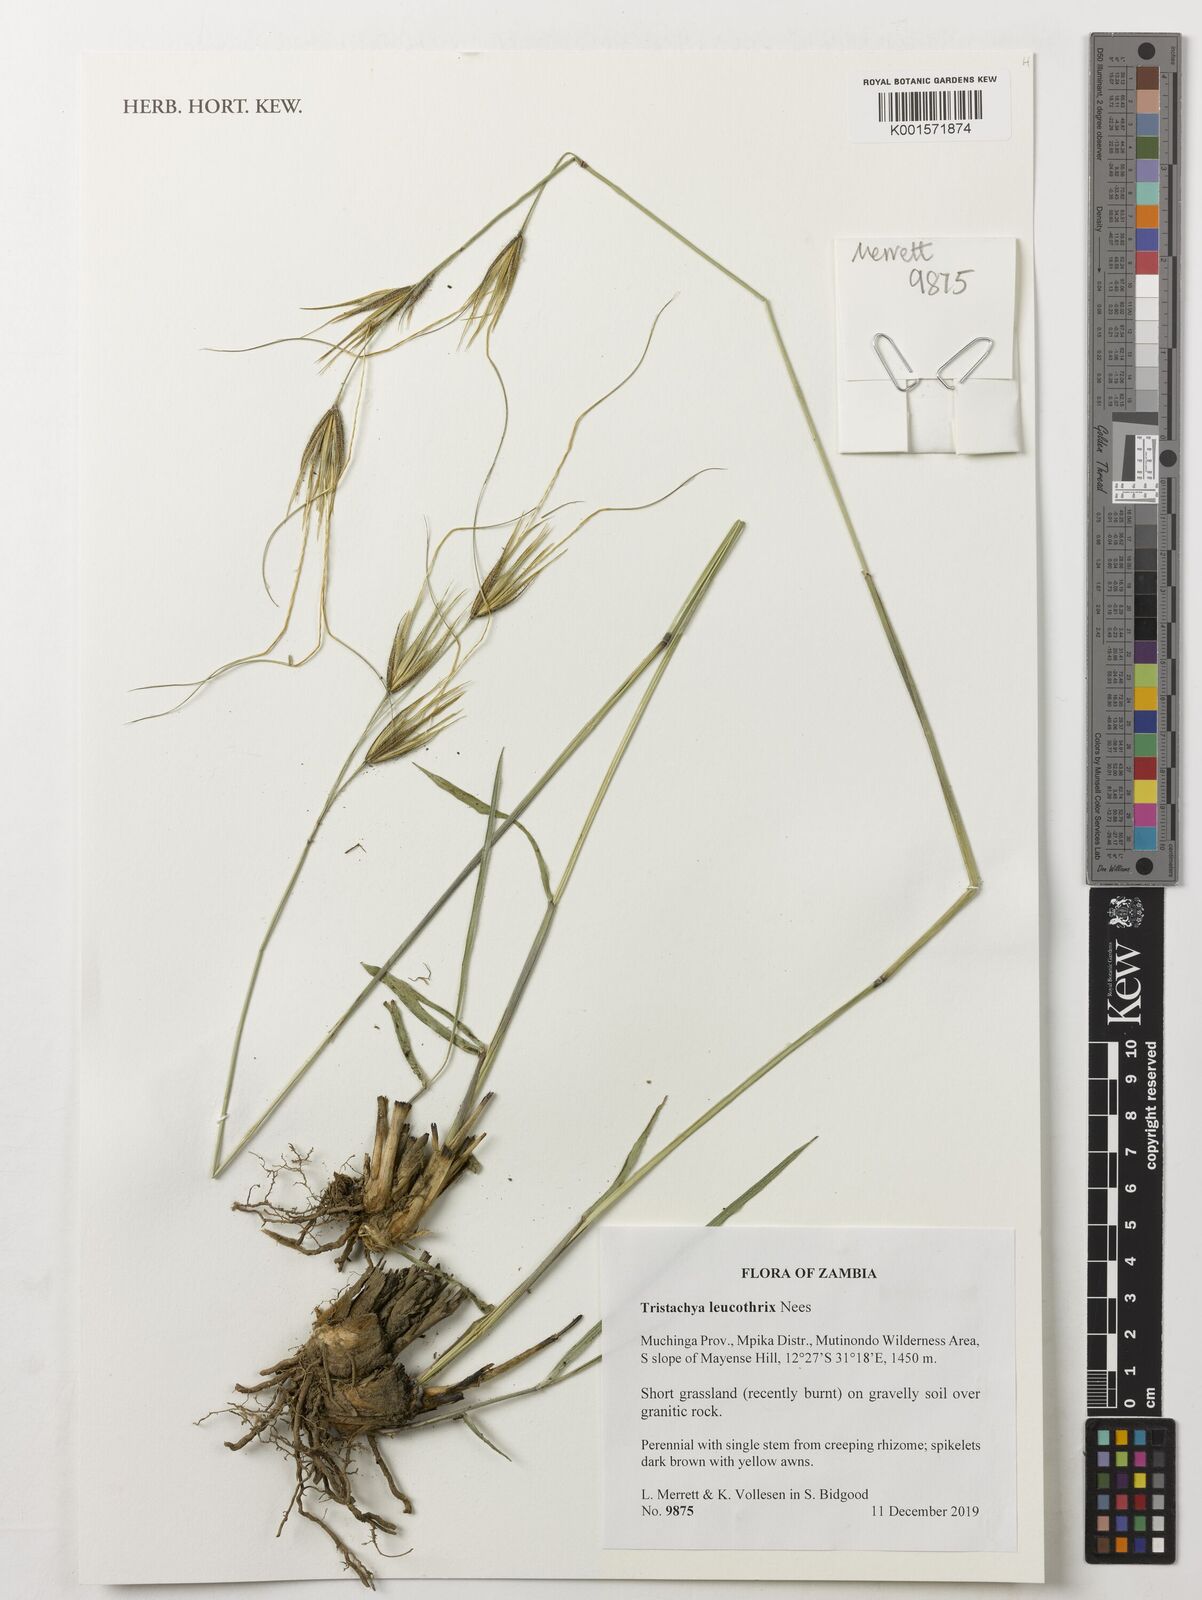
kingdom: Plantae
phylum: Tracheophyta
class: Liliopsida
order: Poales
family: Poaceae
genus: Tristachya
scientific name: Tristachya leucothrix
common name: Trident grass
